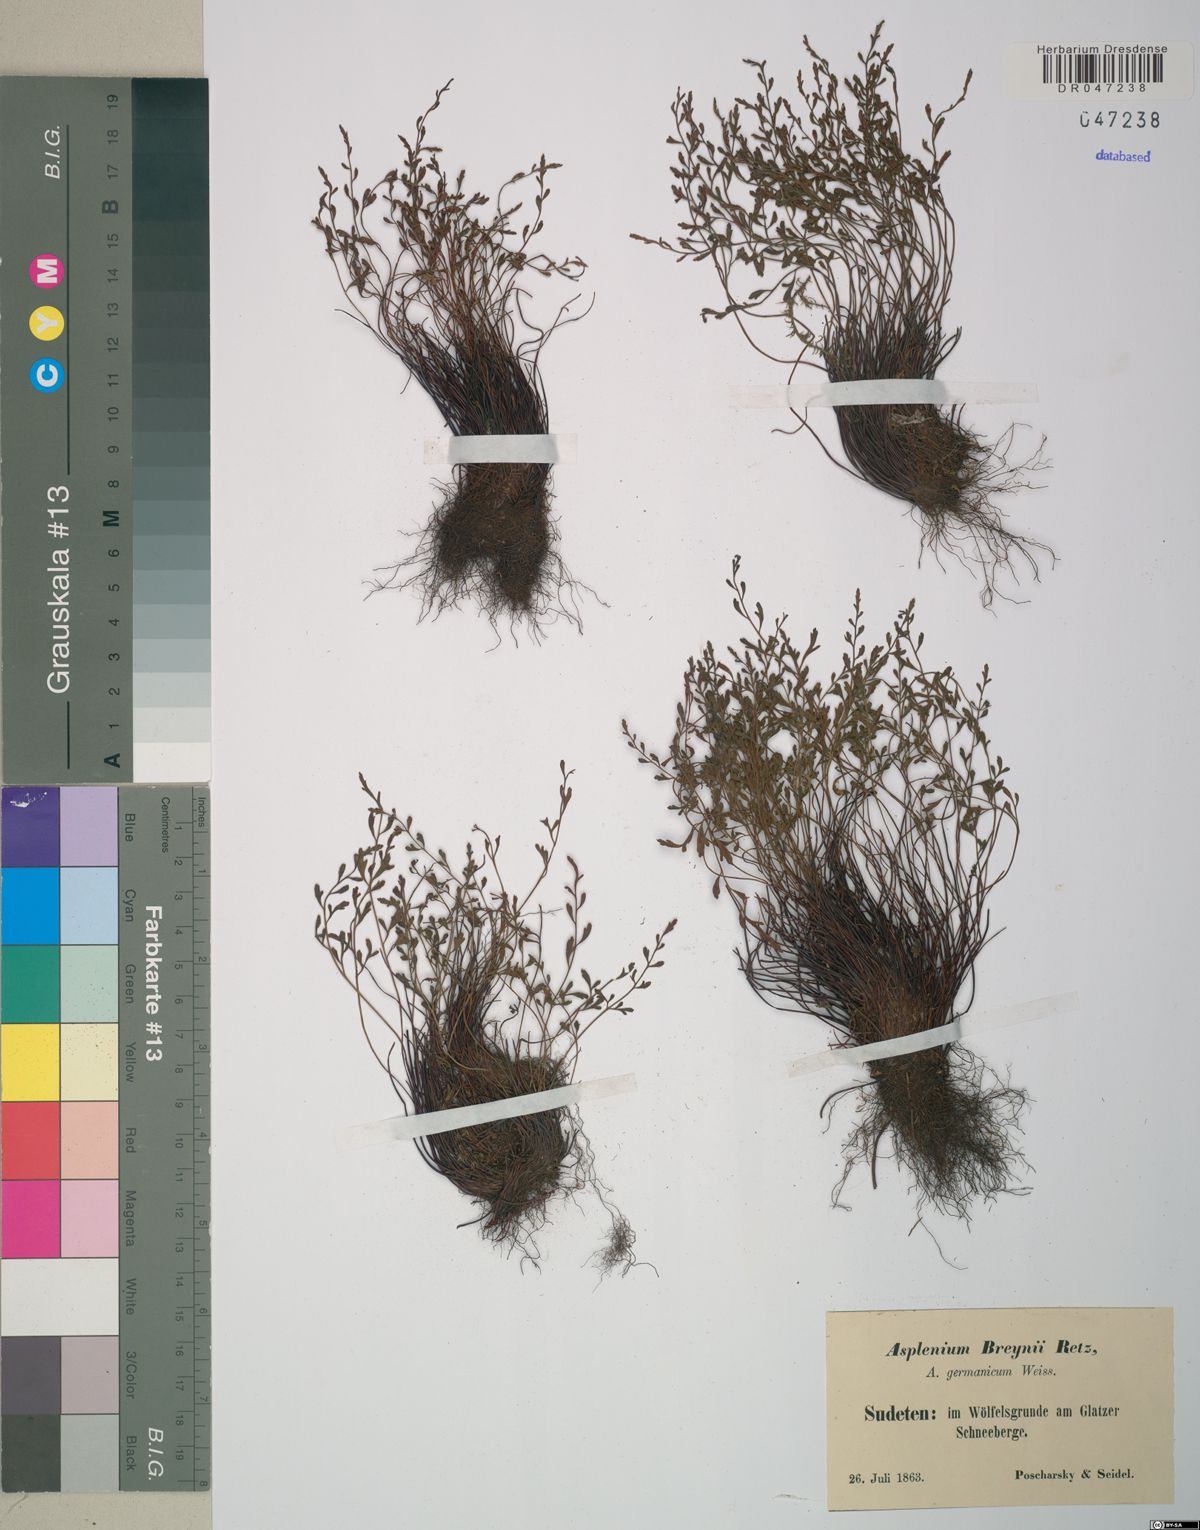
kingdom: Plantae
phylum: Tracheophyta
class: Polypodiopsida
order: Polypodiales
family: Aspleniaceae
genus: Asplenium
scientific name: Asplenium
